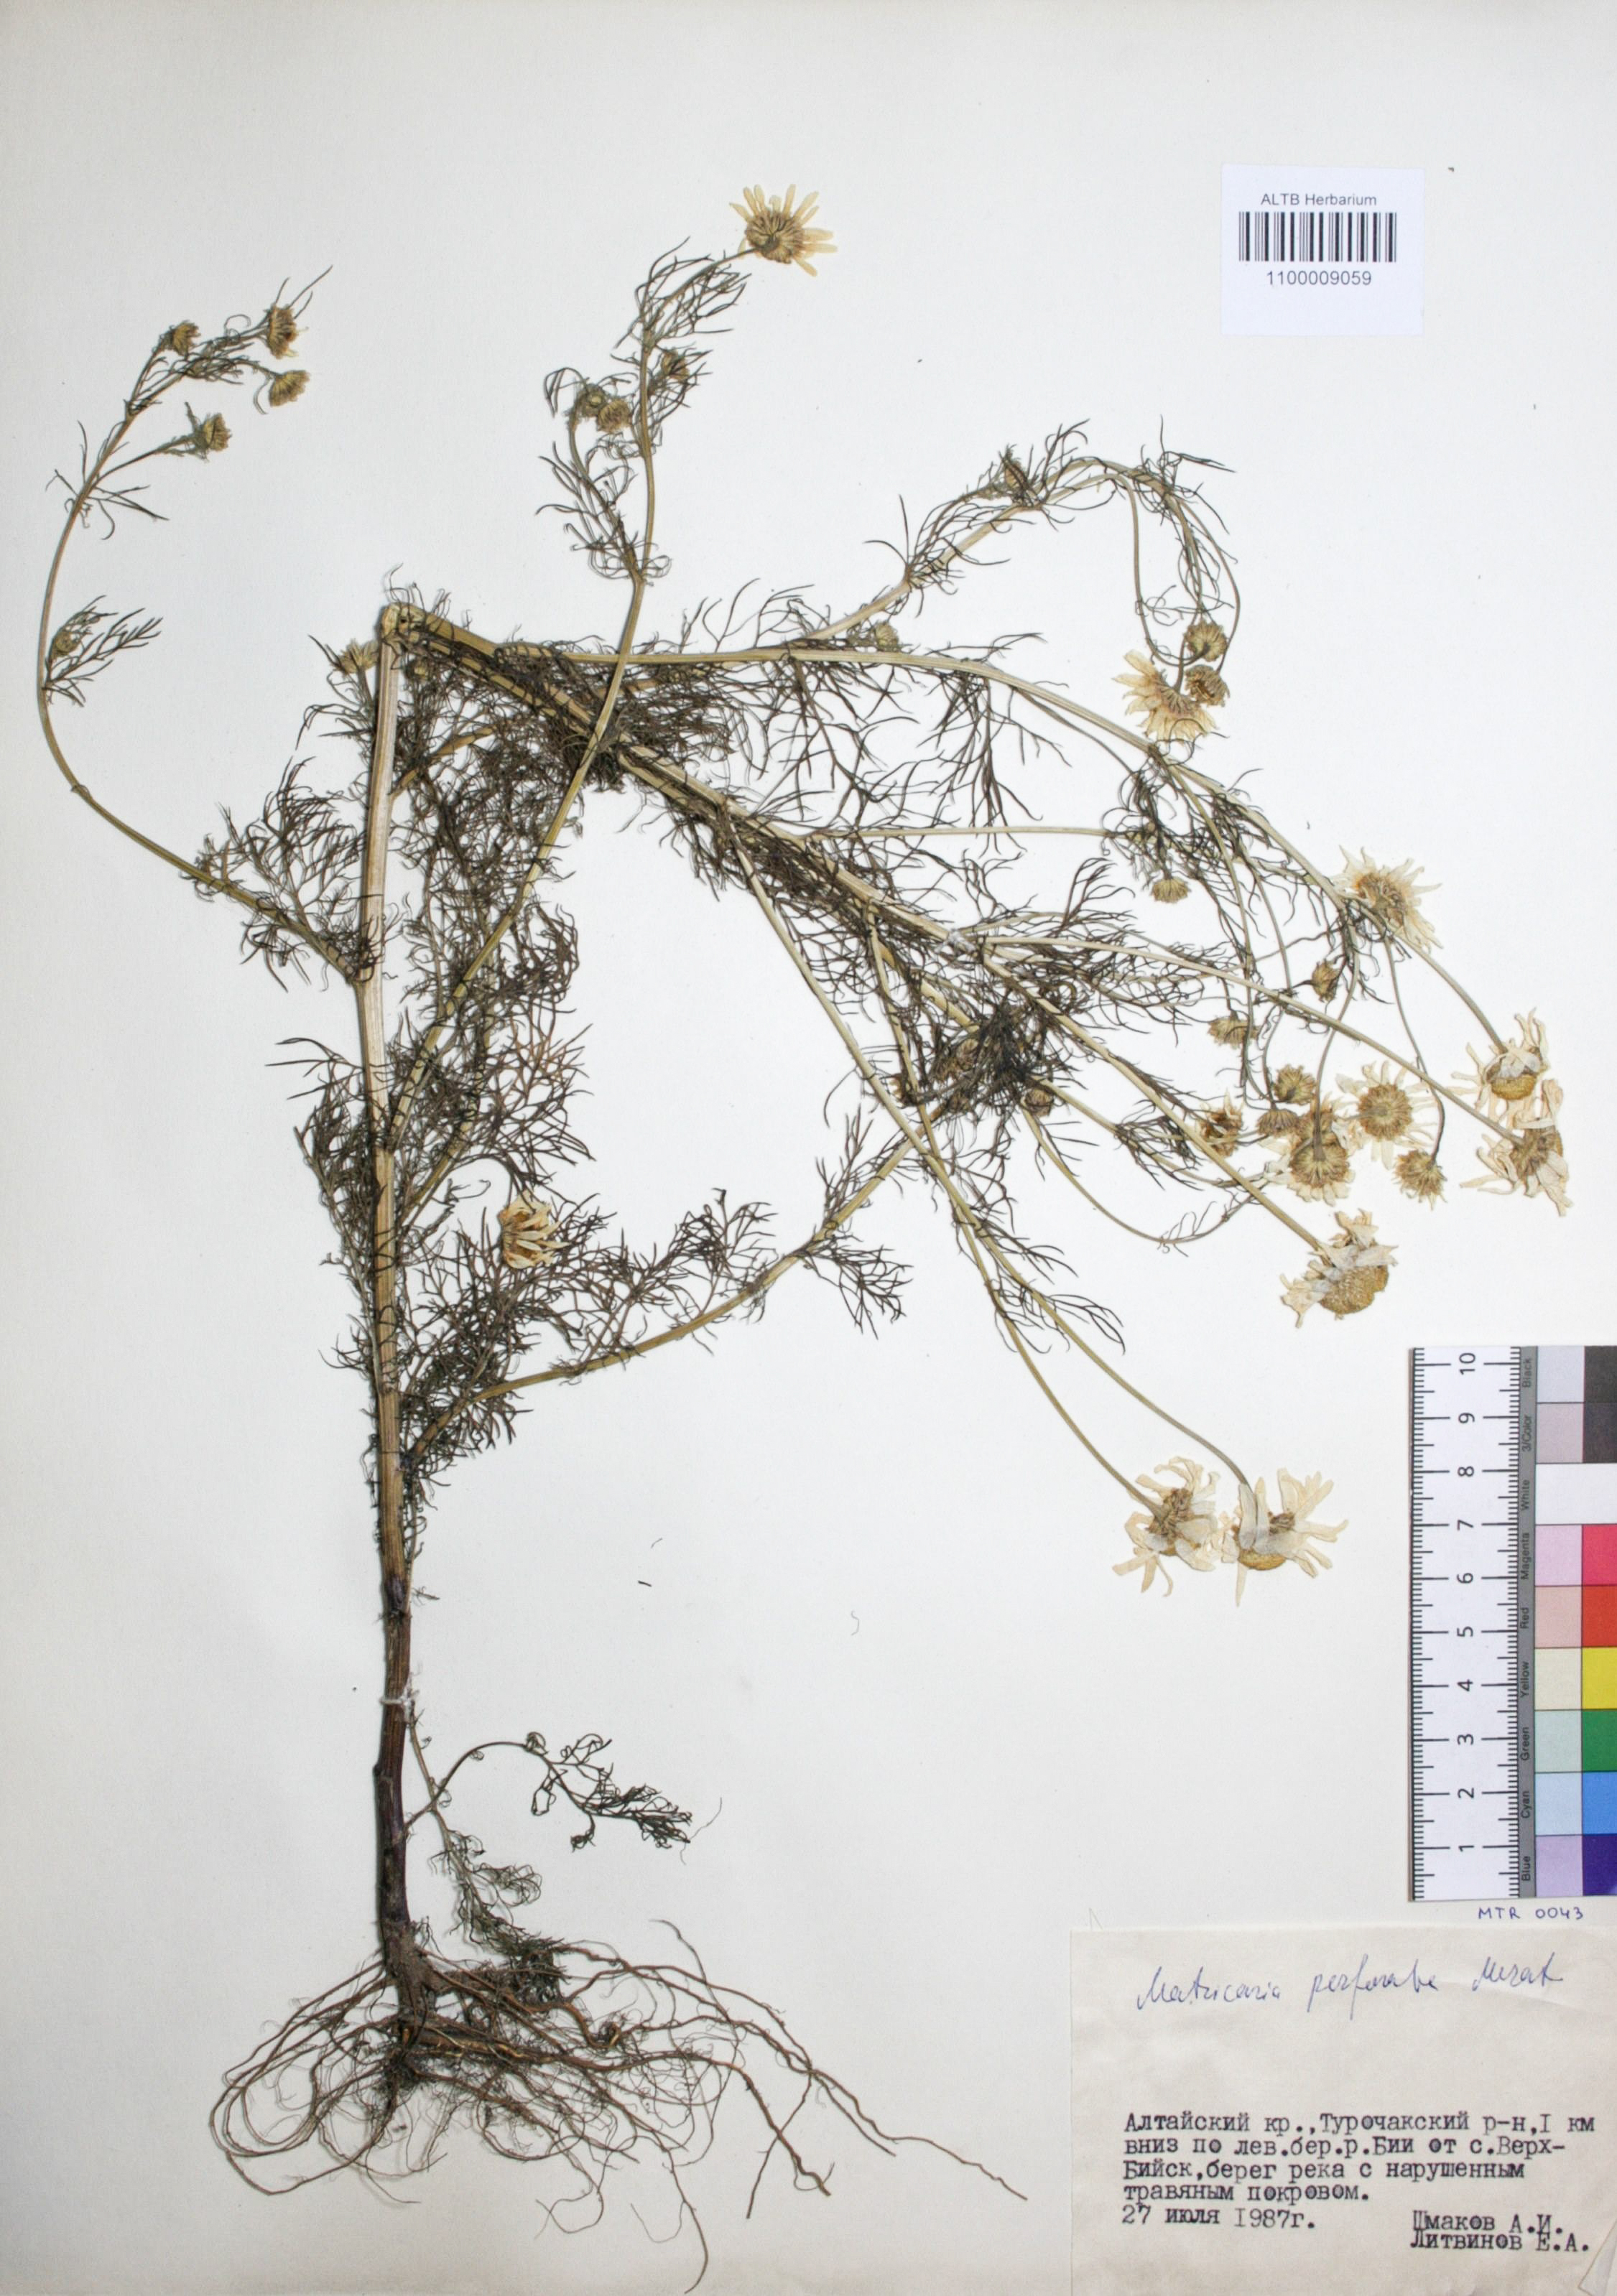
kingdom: Plantae
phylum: Tracheophyta
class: Magnoliopsida
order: Asterales
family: Asteraceae
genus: Tripleurospermum
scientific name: Tripleurospermum inodorum
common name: Scentless mayweed
